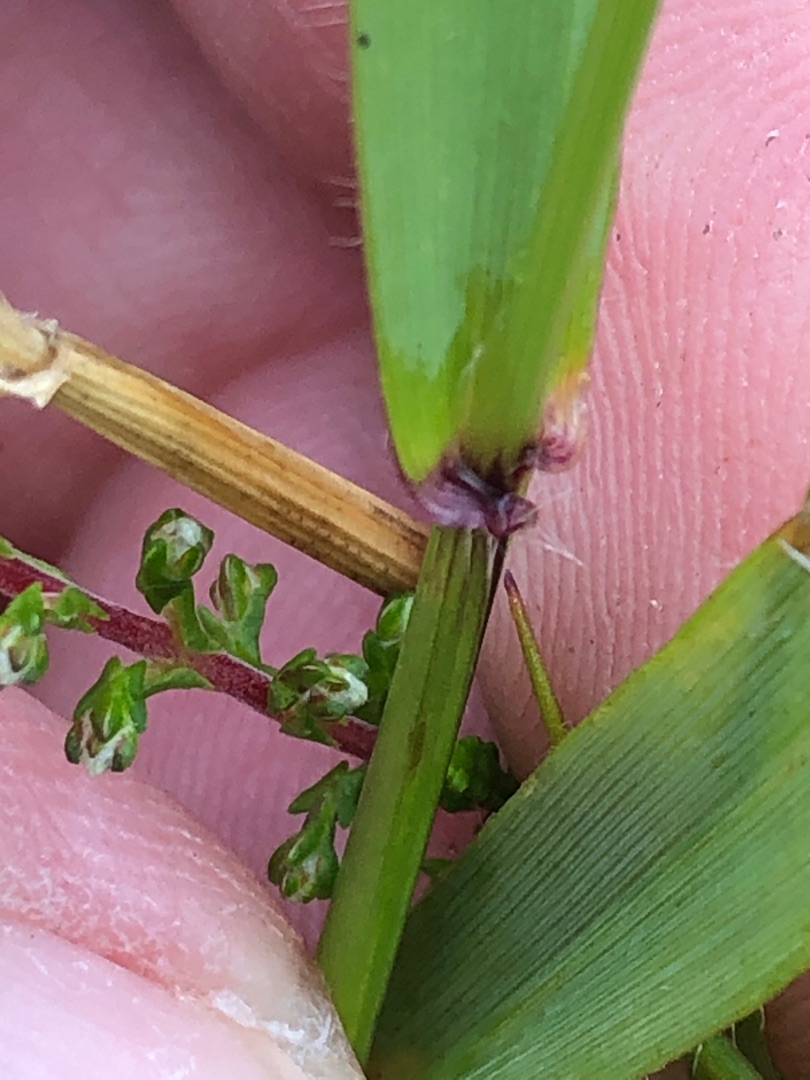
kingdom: Plantae
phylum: Tracheophyta
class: Liliopsida
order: Poales
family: Poaceae
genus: Anthoxanthum
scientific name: Anthoxanthum odoratum
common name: Vellugtende gulaks
